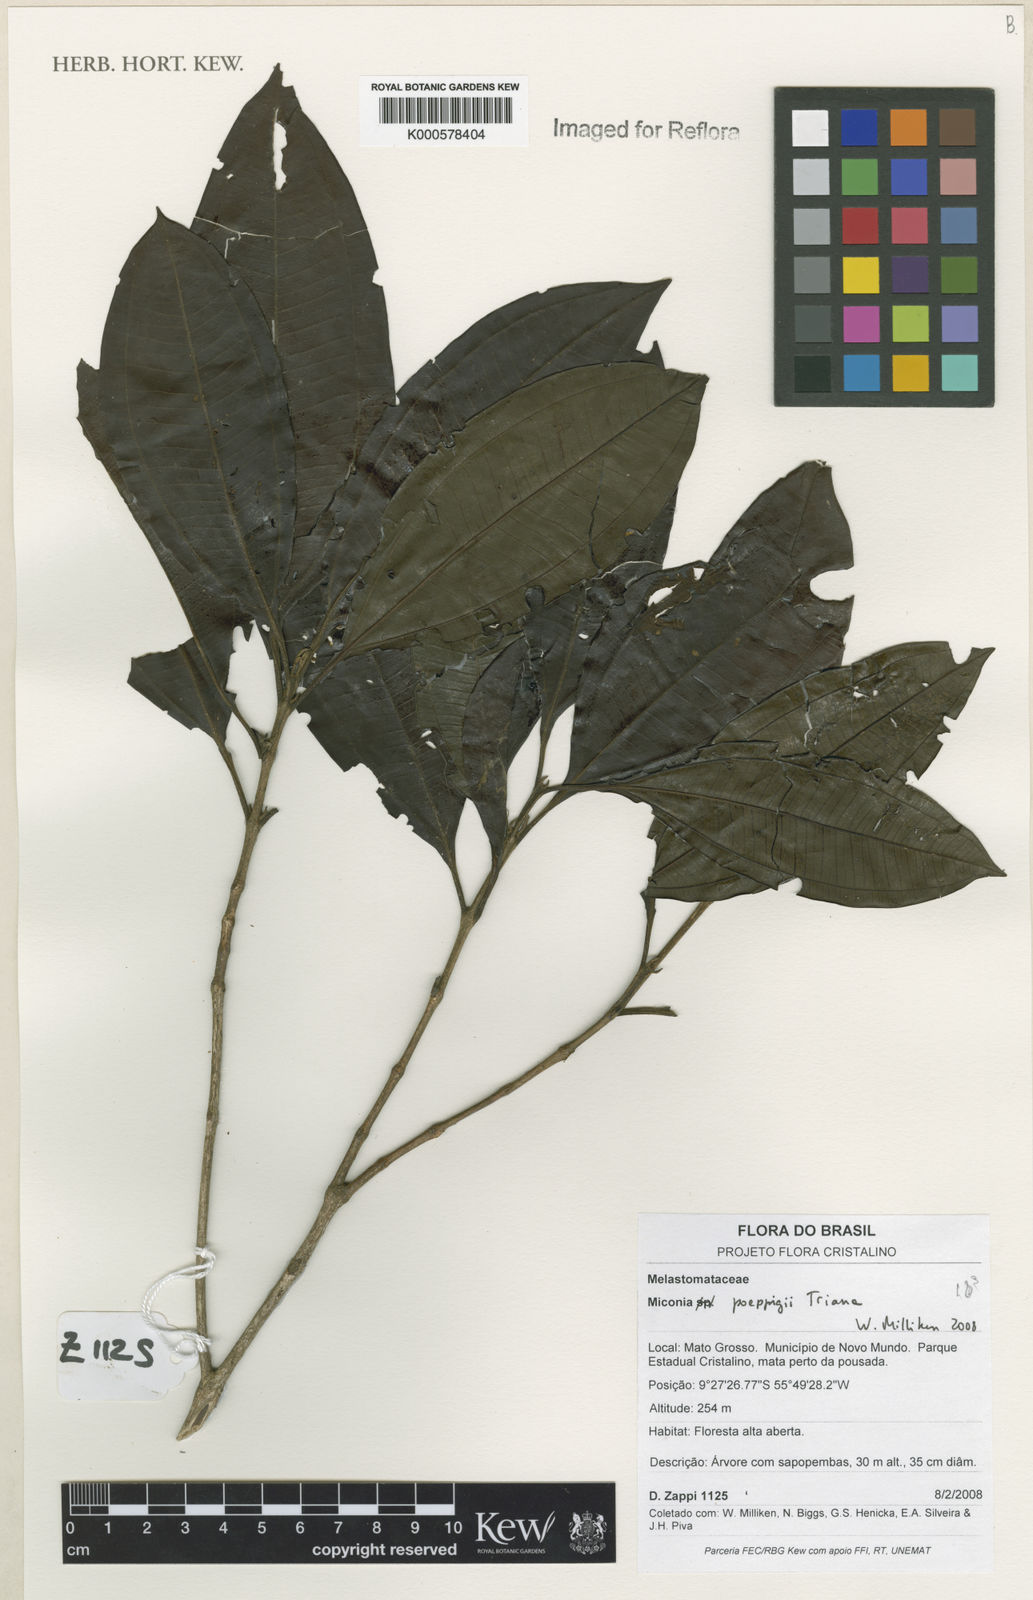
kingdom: Plantae
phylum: Tracheophyta
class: Magnoliopsida
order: Myrtales
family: Melastomataceae
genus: Miconia
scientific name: Miconia poeppigii
